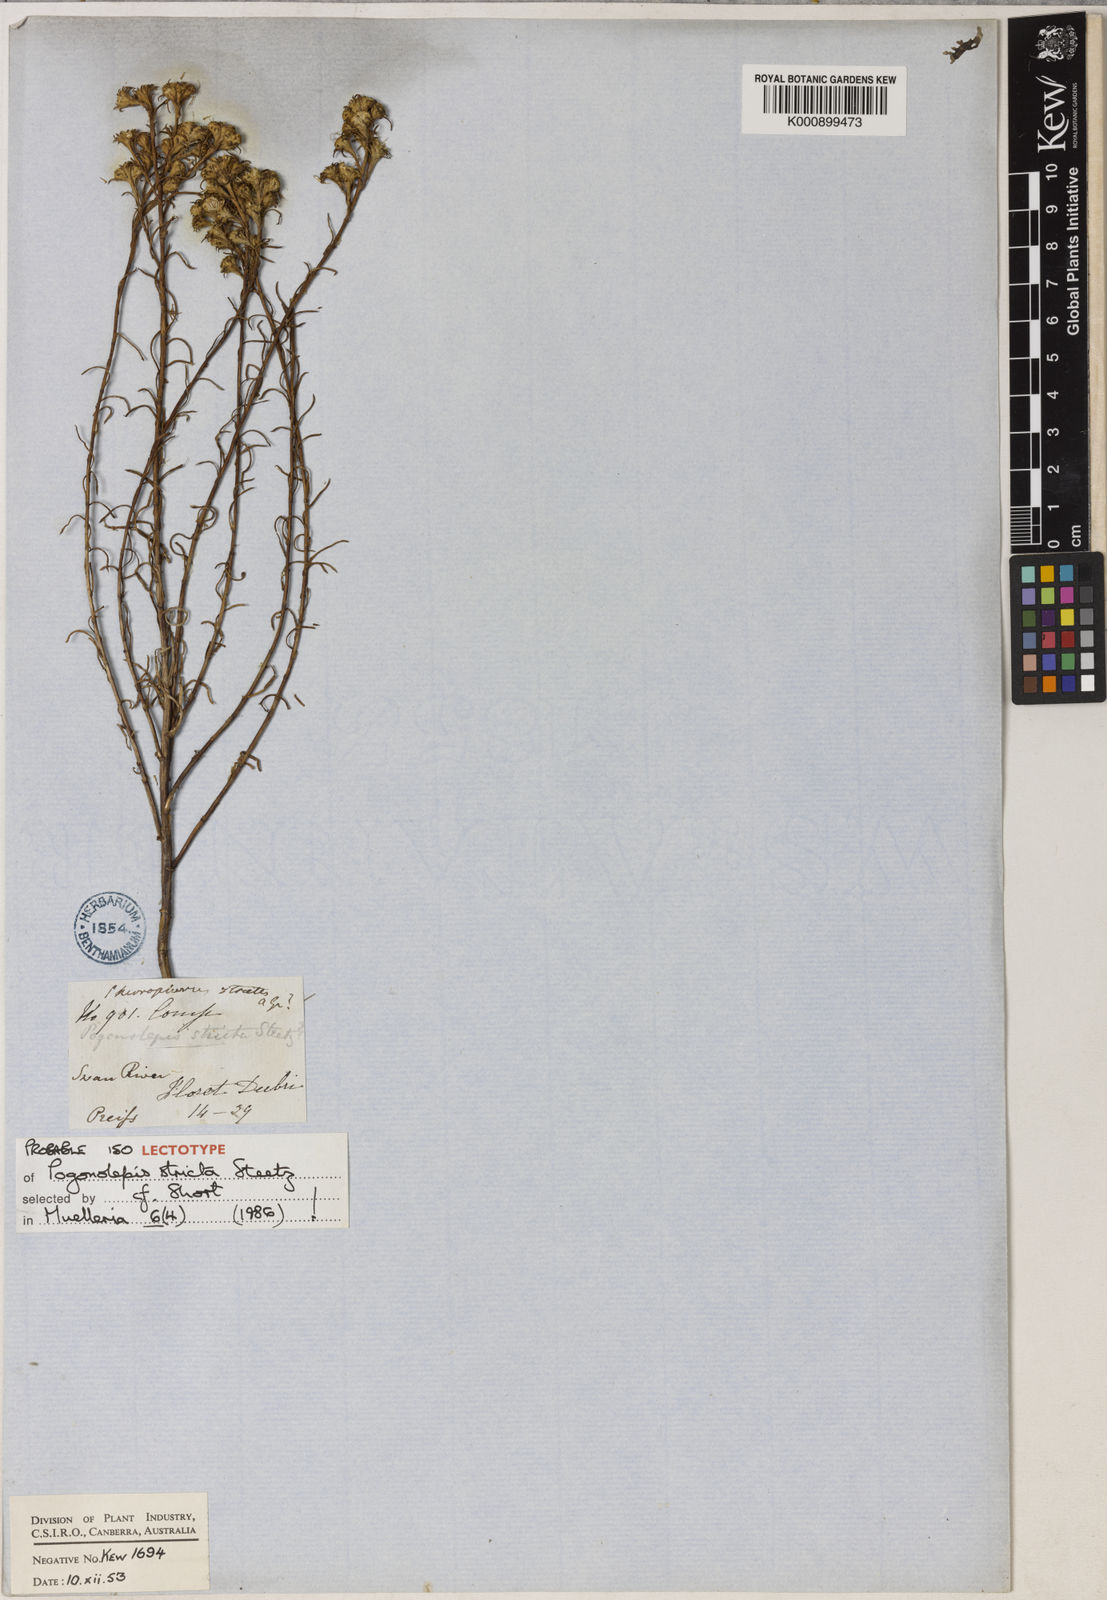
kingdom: Plantae
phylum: Tracheophyta
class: Magnoliopsida
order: Asterales
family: Asteraceae
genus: Pogonolepis
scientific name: Pogonolepis stricta
